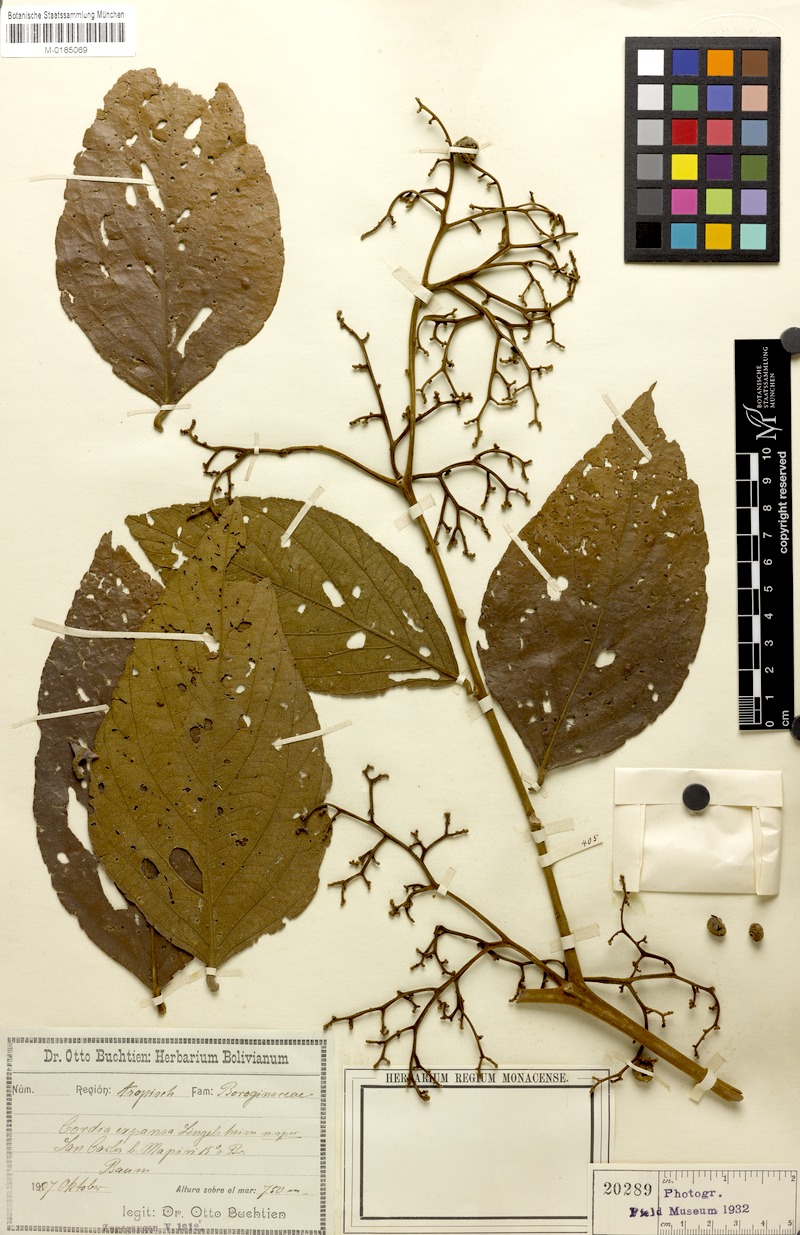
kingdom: Plantae
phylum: Tracheophyta
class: Magnoliopsida
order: Boraginales
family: Cordiaceae
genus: Cordia
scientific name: Cordia toqueve
